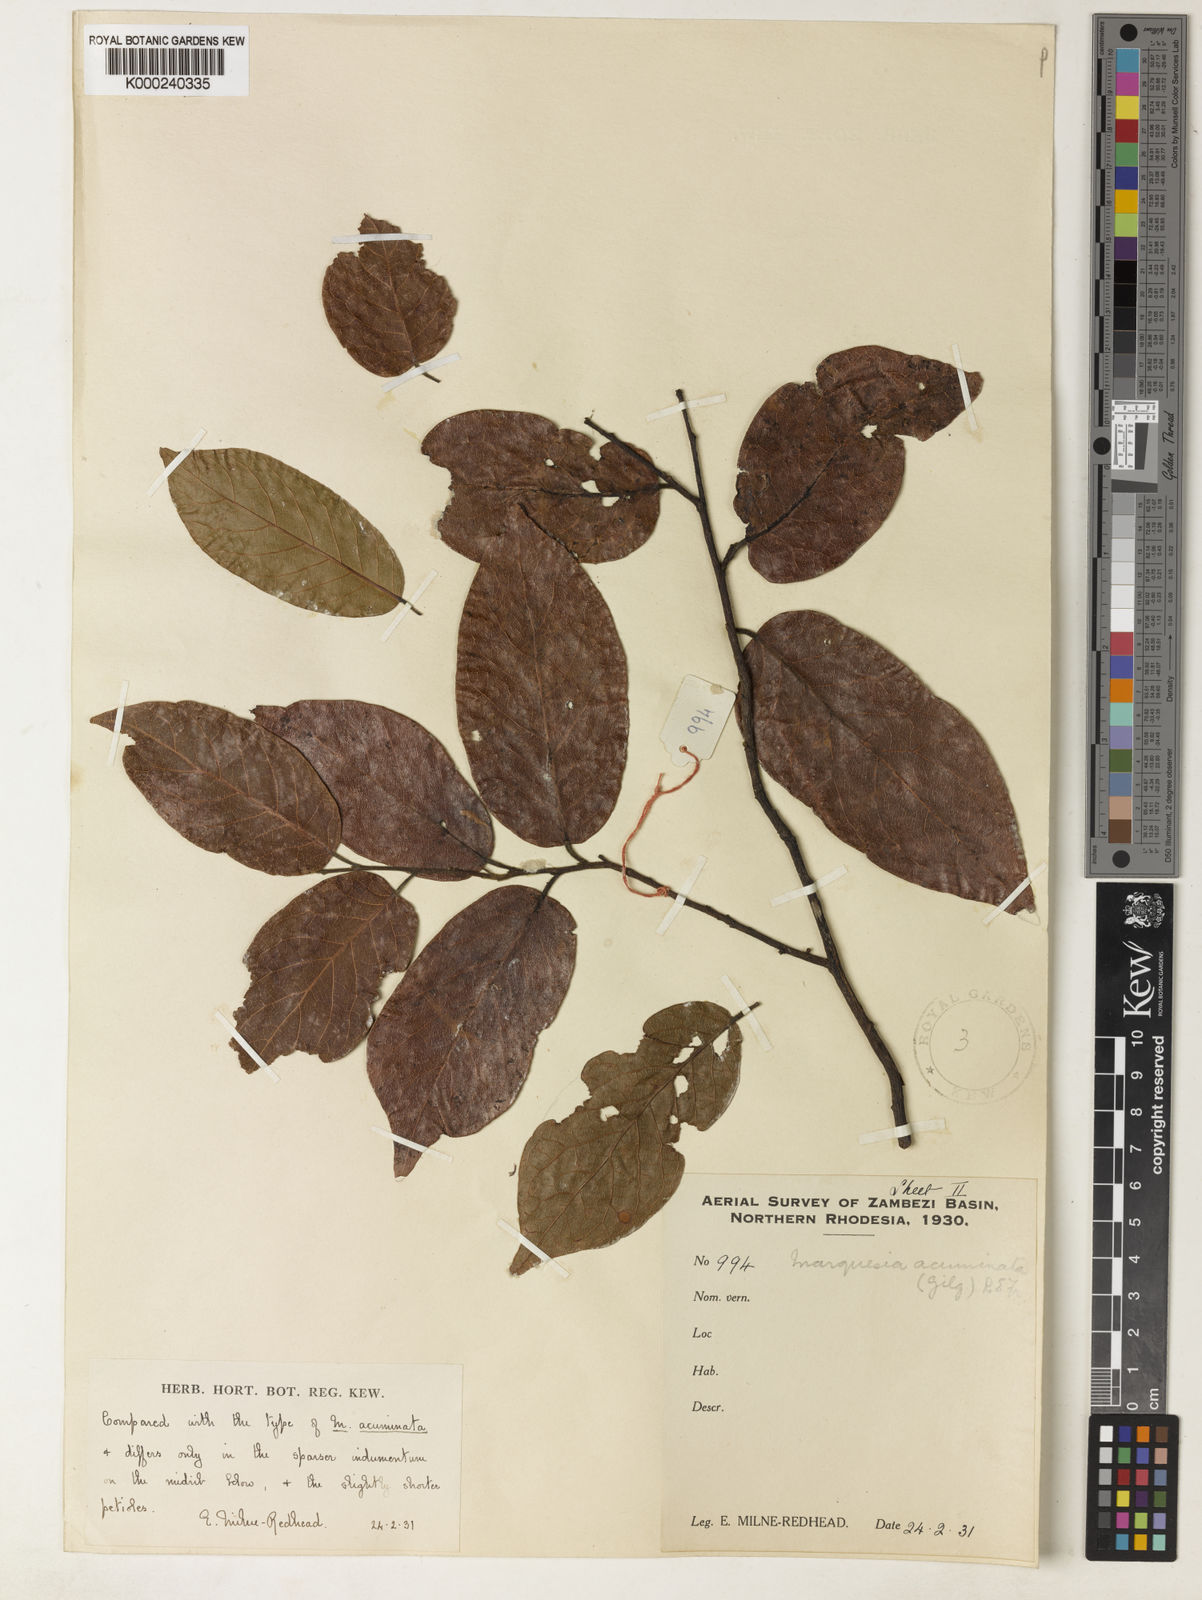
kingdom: Plantae
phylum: Tracheophyta
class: Magnoliopsida
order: Malvales
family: Dipterocarpaceae
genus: Marquesia
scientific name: Marquesia acuminata
